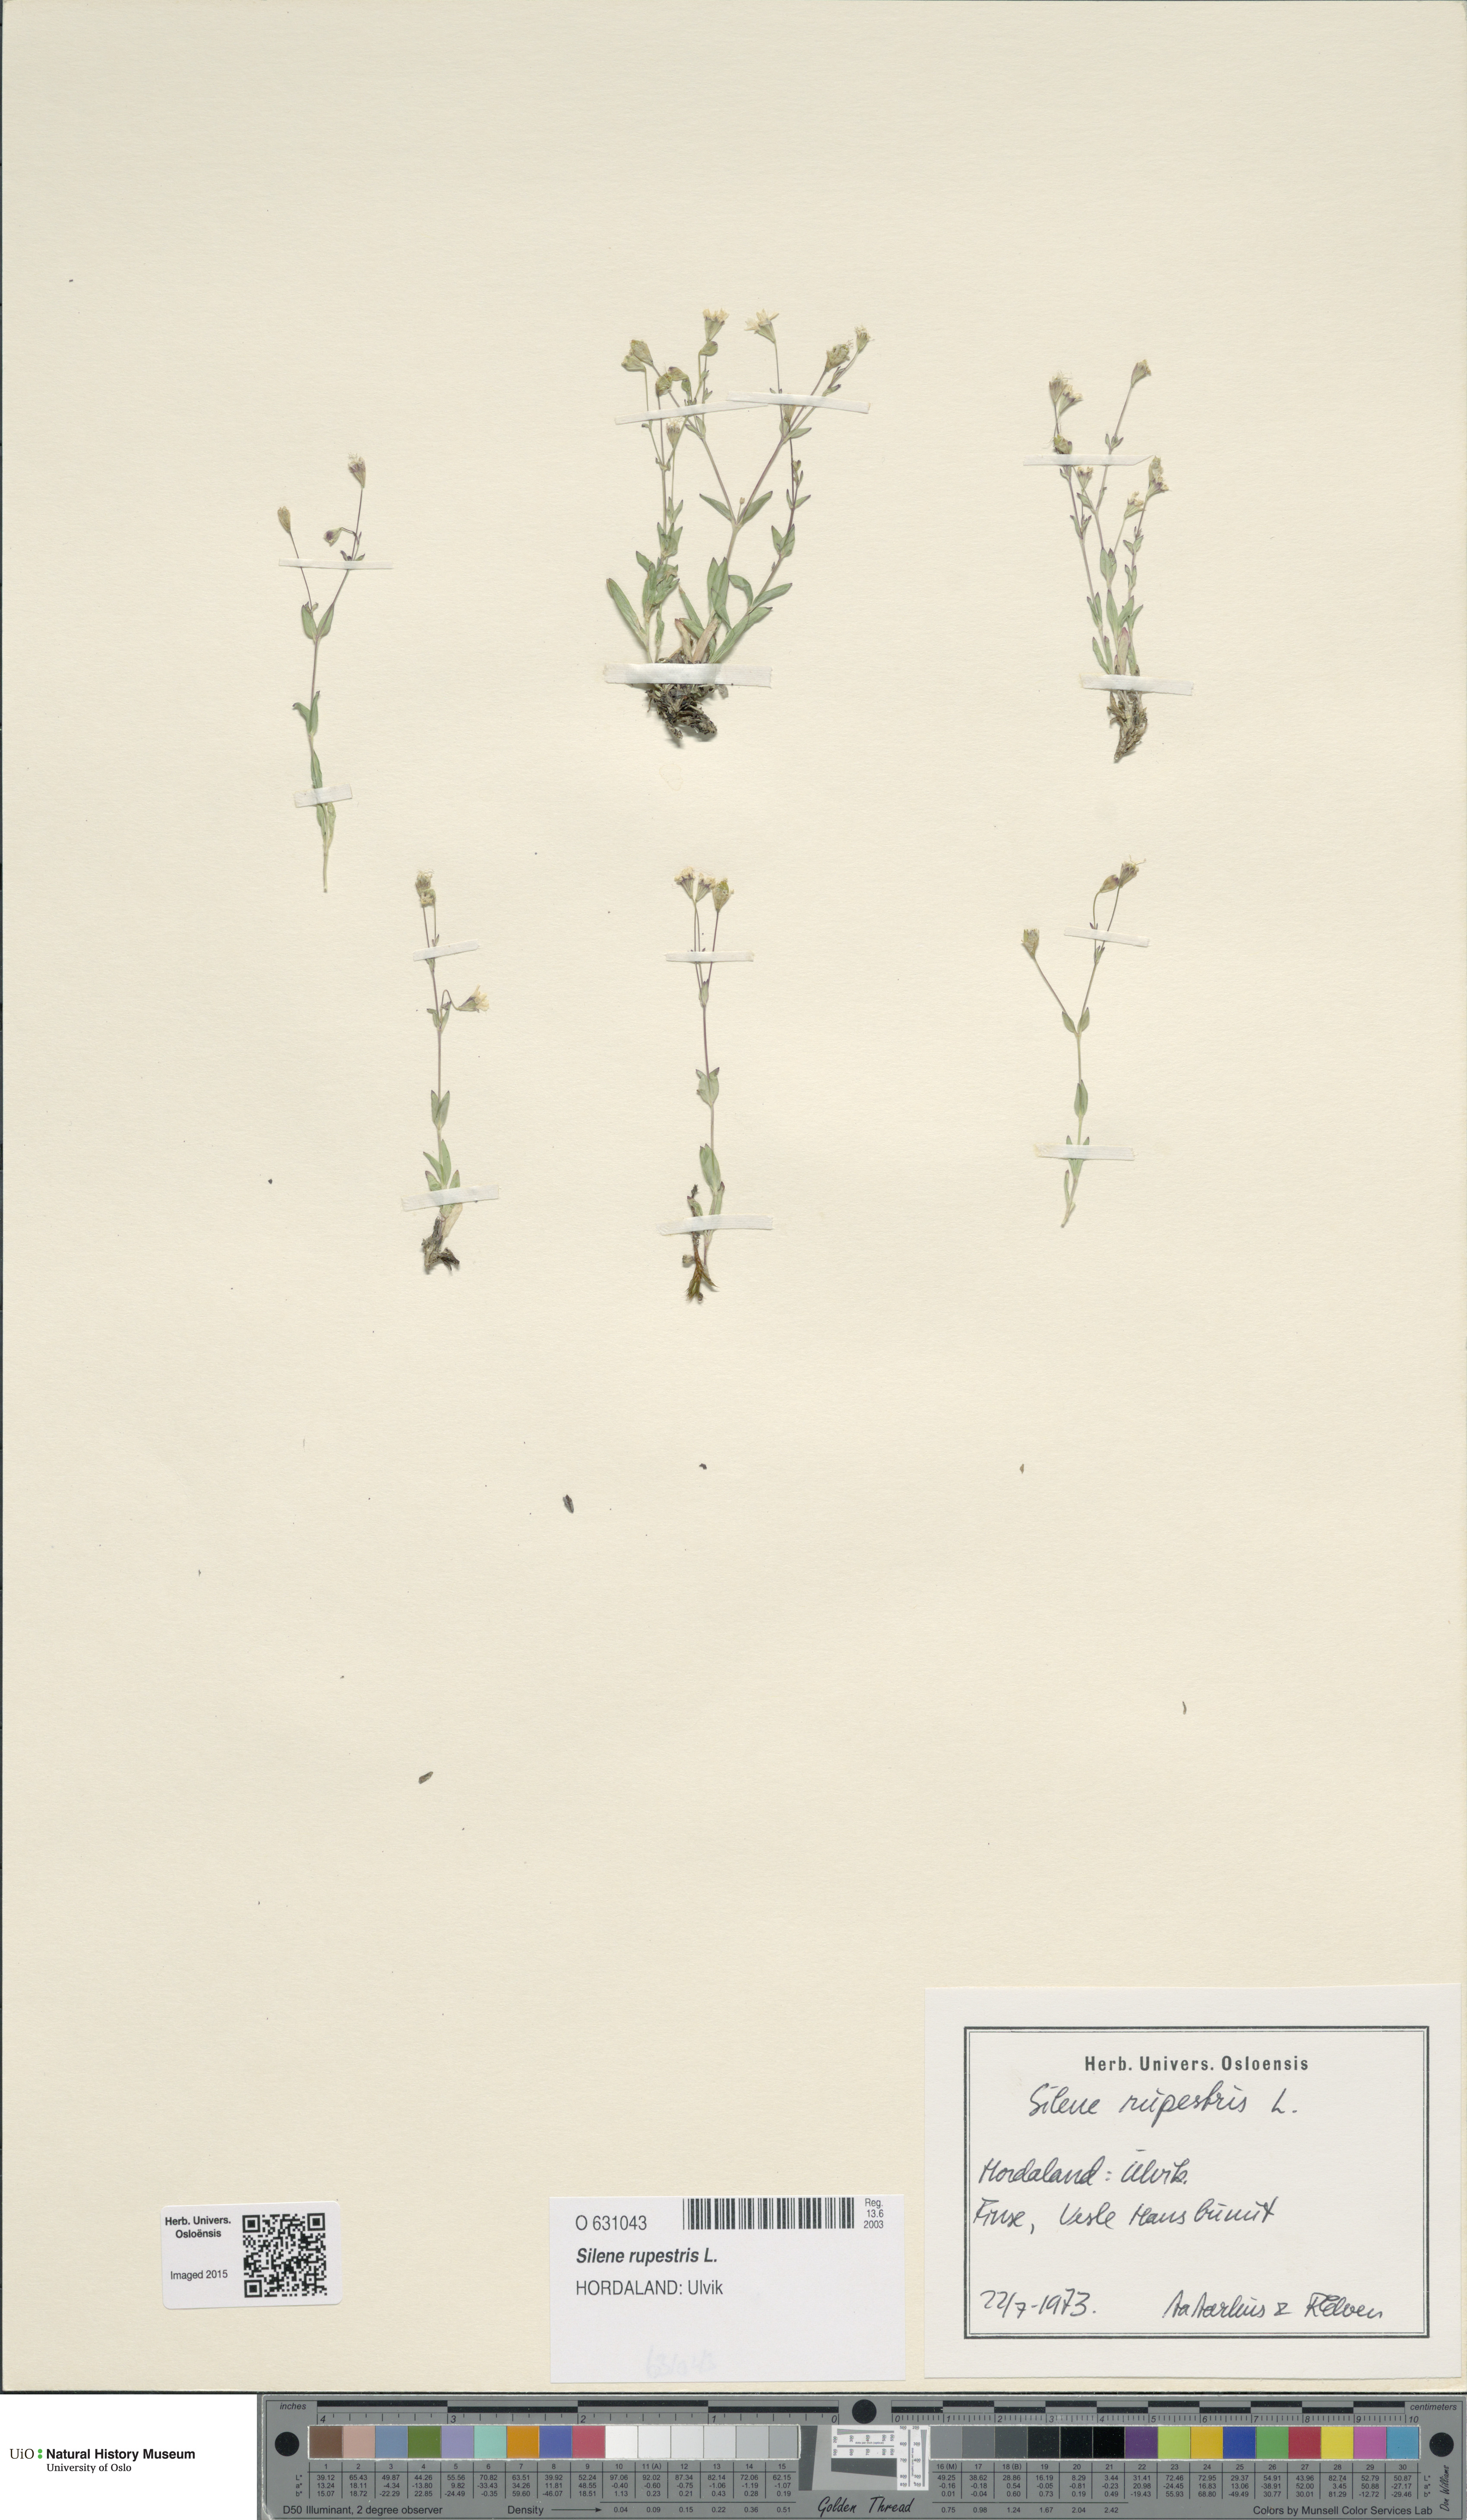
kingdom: Plantae
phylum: Tracheophyta
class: Magnoliopsida
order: Caryophyllales
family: Caryophyllaceae
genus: Atocion
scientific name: Atocion rupestre
